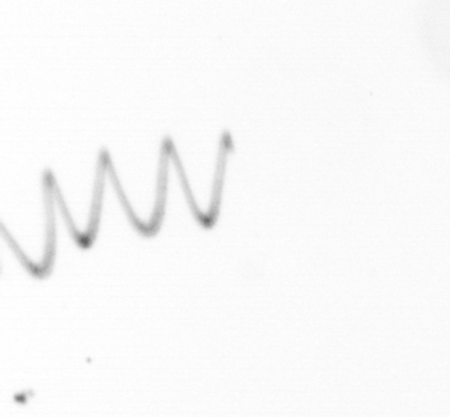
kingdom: Chromista
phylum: Ochrophyta
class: Bacillariophyceae
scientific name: Bacillariophyceae
